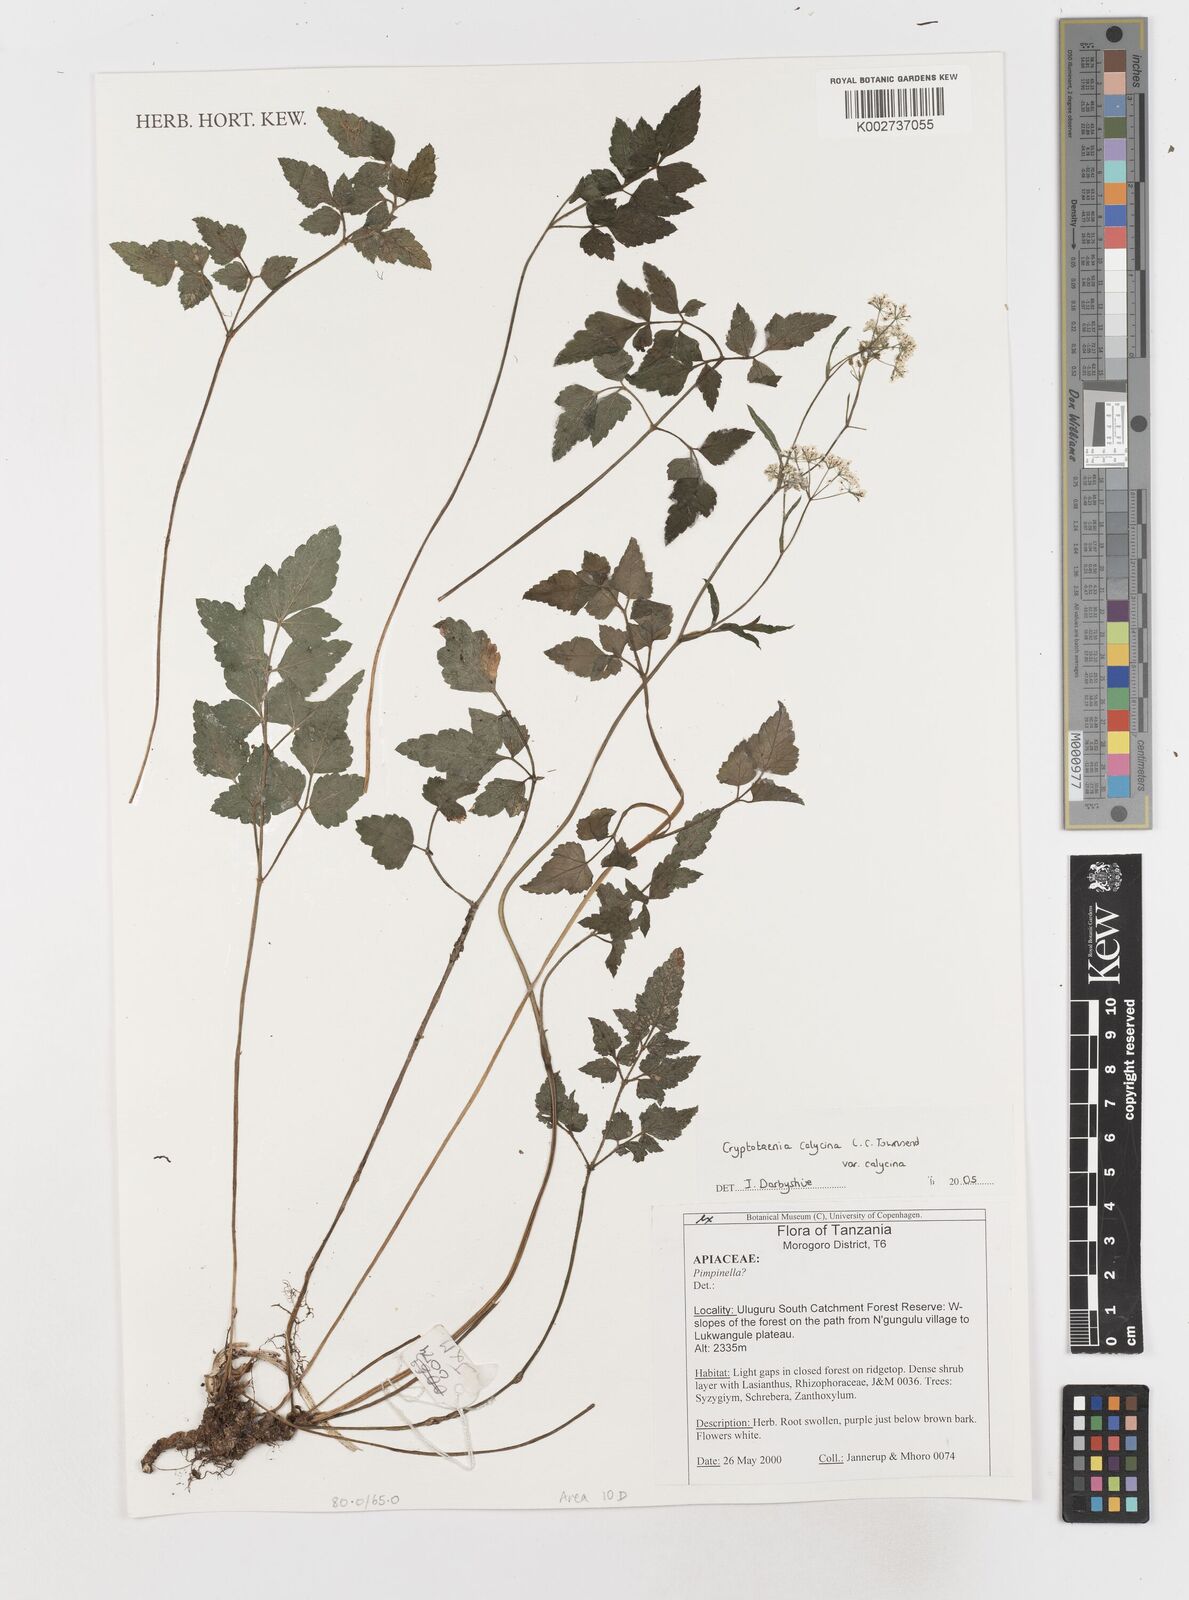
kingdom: Plantae
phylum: Tracheophyta
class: Magnoliopsida
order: Apiales
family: Apiaceae
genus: Cryptotaenia
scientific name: Cryptotaenia calycina
